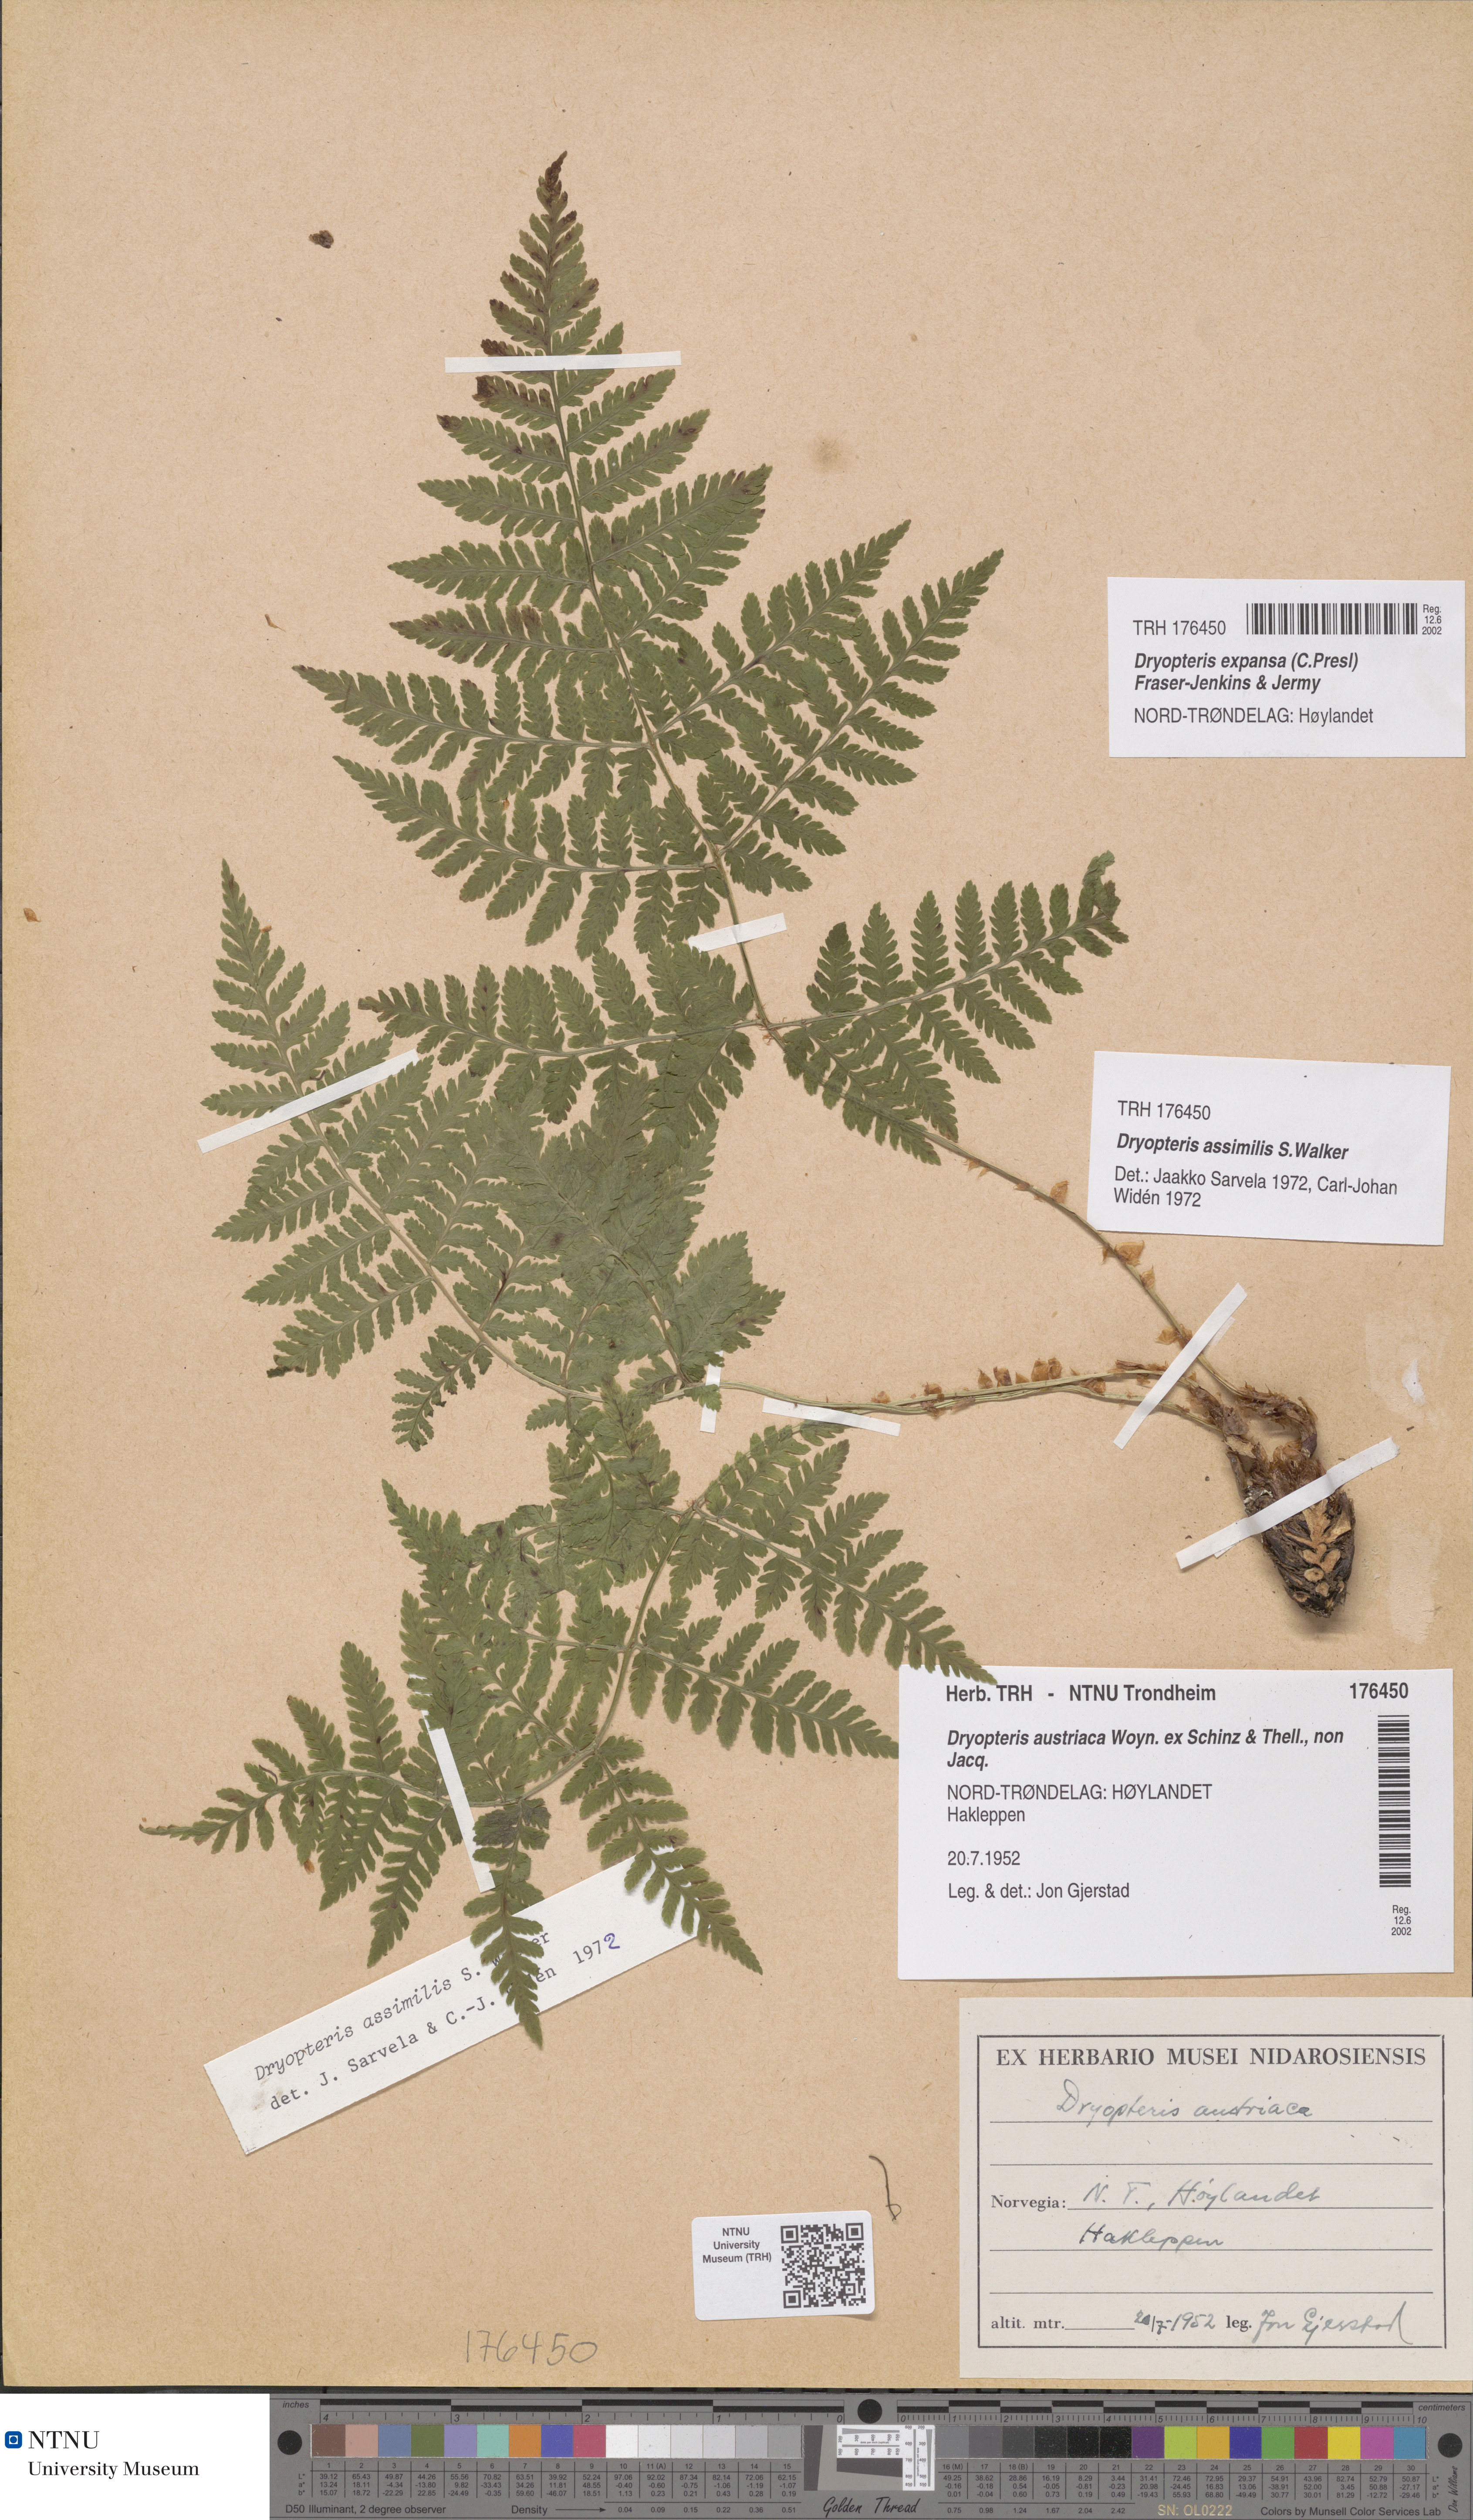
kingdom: Plantae
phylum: Tracheophyta
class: Polypodiopsida
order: Polypodiales
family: Dryopteridaceae
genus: Dryopteris
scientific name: Dryopteris expansa
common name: Northern buckler fern
